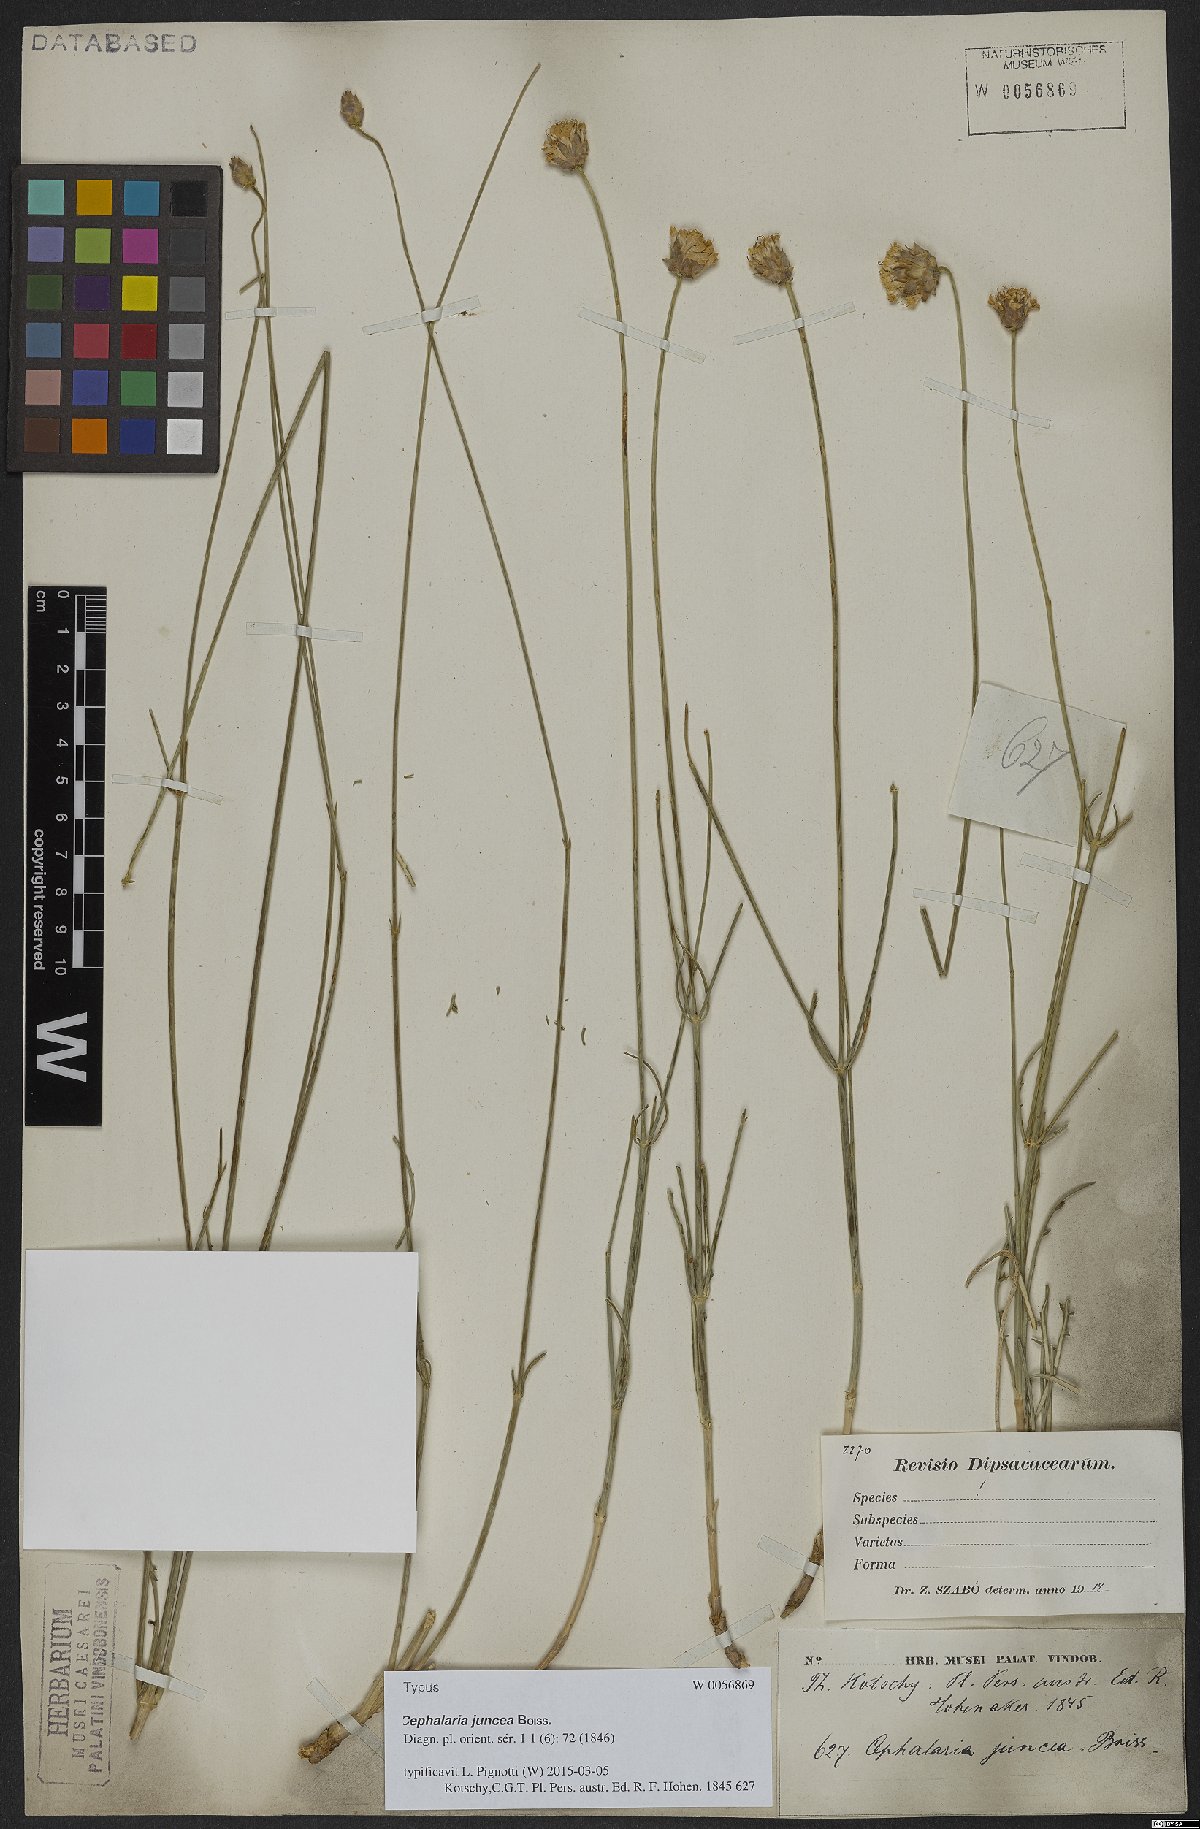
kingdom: Plantae
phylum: Tracheophyta
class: Magnoliopsida
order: Dipsacales
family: Caprifoliaceae
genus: Cephalaria
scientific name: Cephalaria juncea
